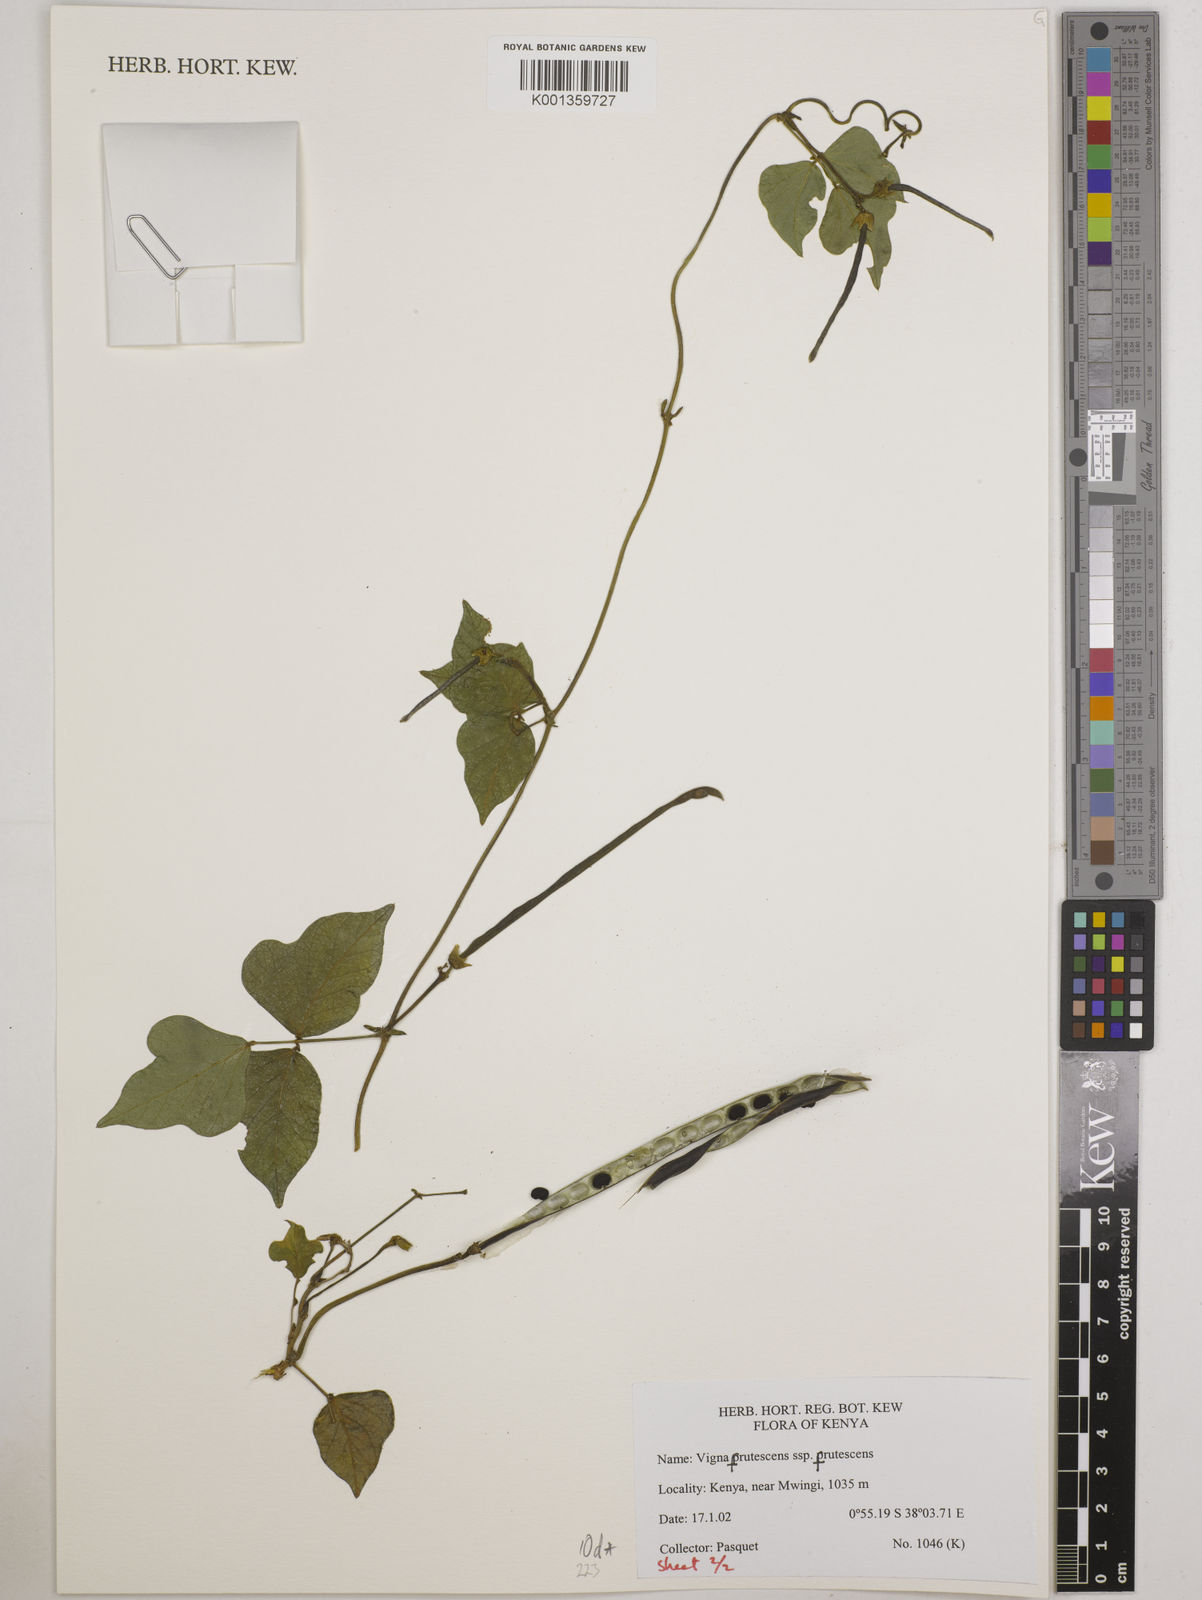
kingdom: Plantae
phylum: Tracheophyta
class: Magnoliopsida
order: Fabales
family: Fabaceae
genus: Vigna
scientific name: Vigna frutescens
